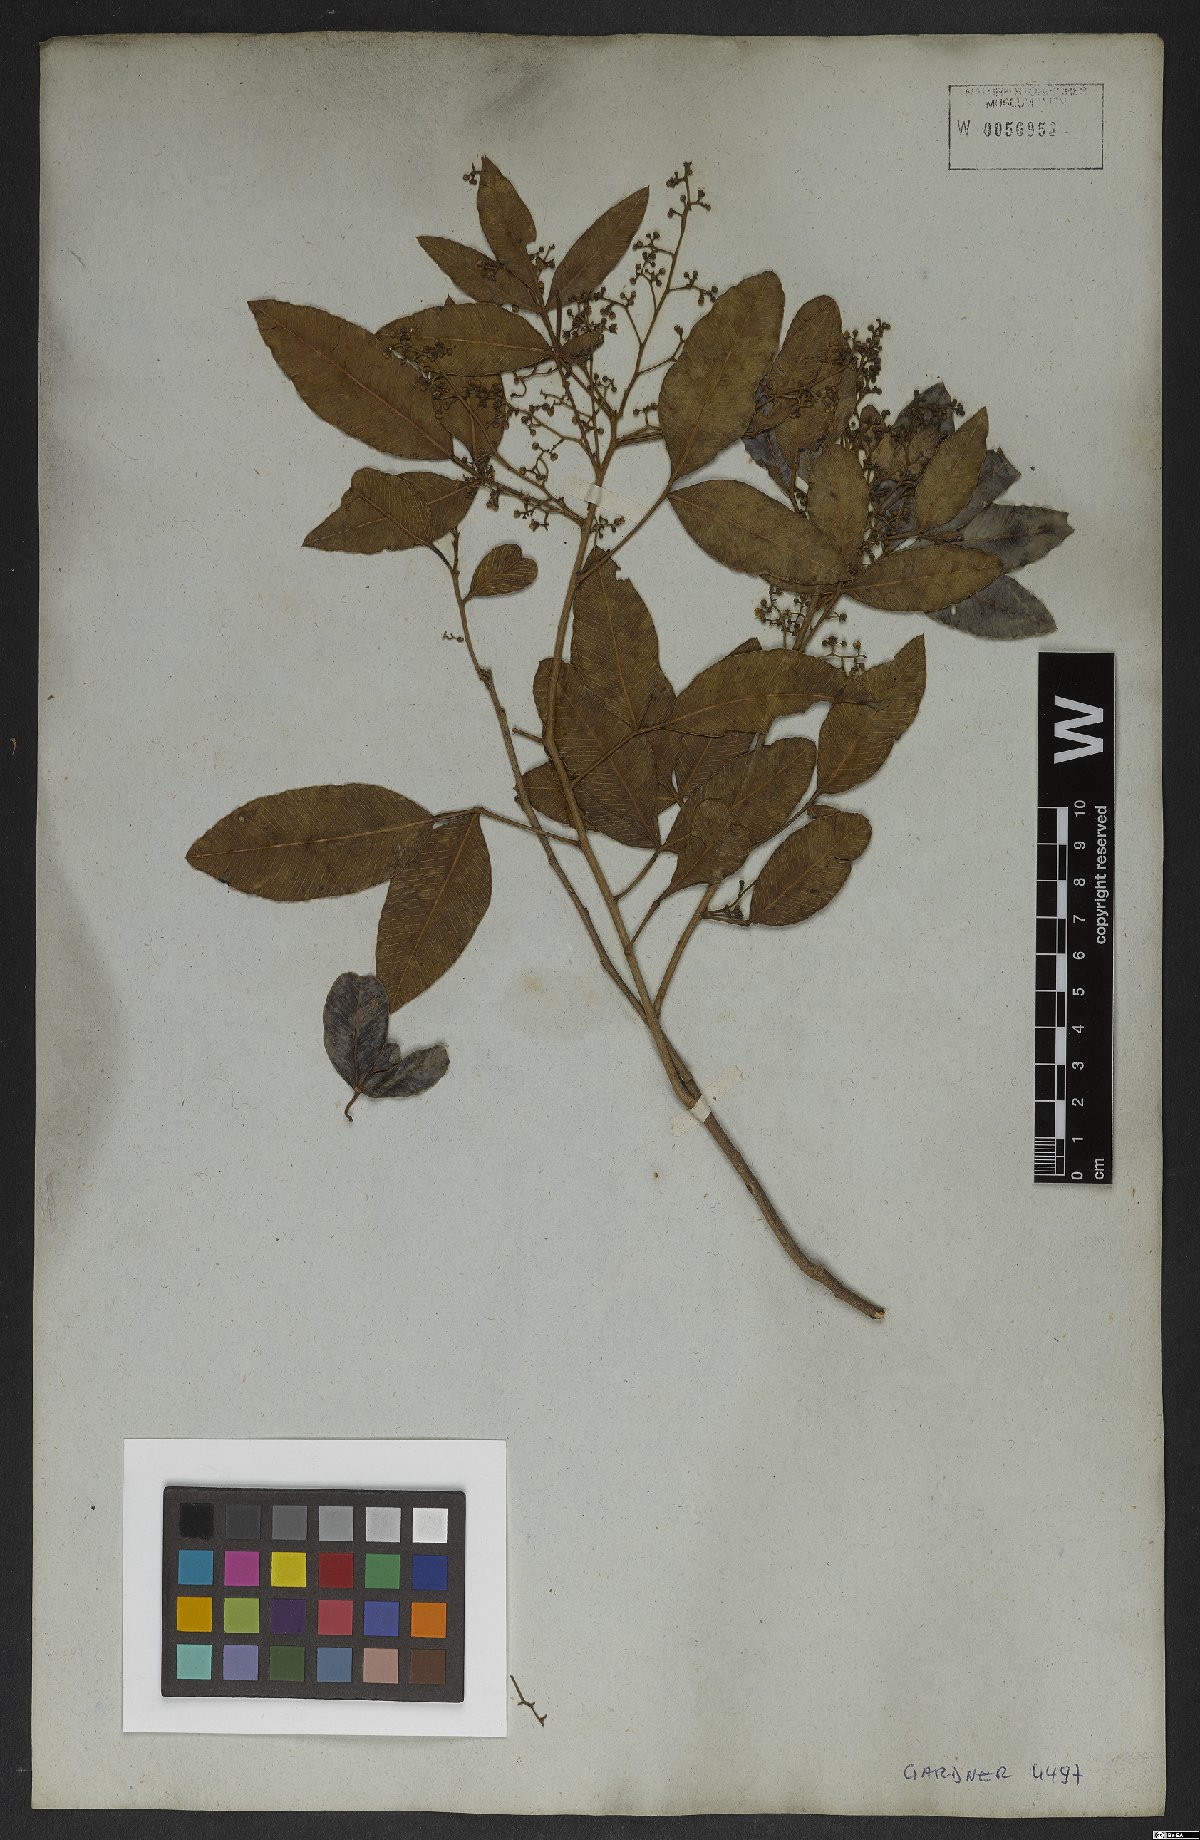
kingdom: Plantae
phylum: Tracheophyta
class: Magnoliopsida
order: Sapindales
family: Anacardiaceae
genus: Lithraea
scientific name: Lithraea brasiliensis
